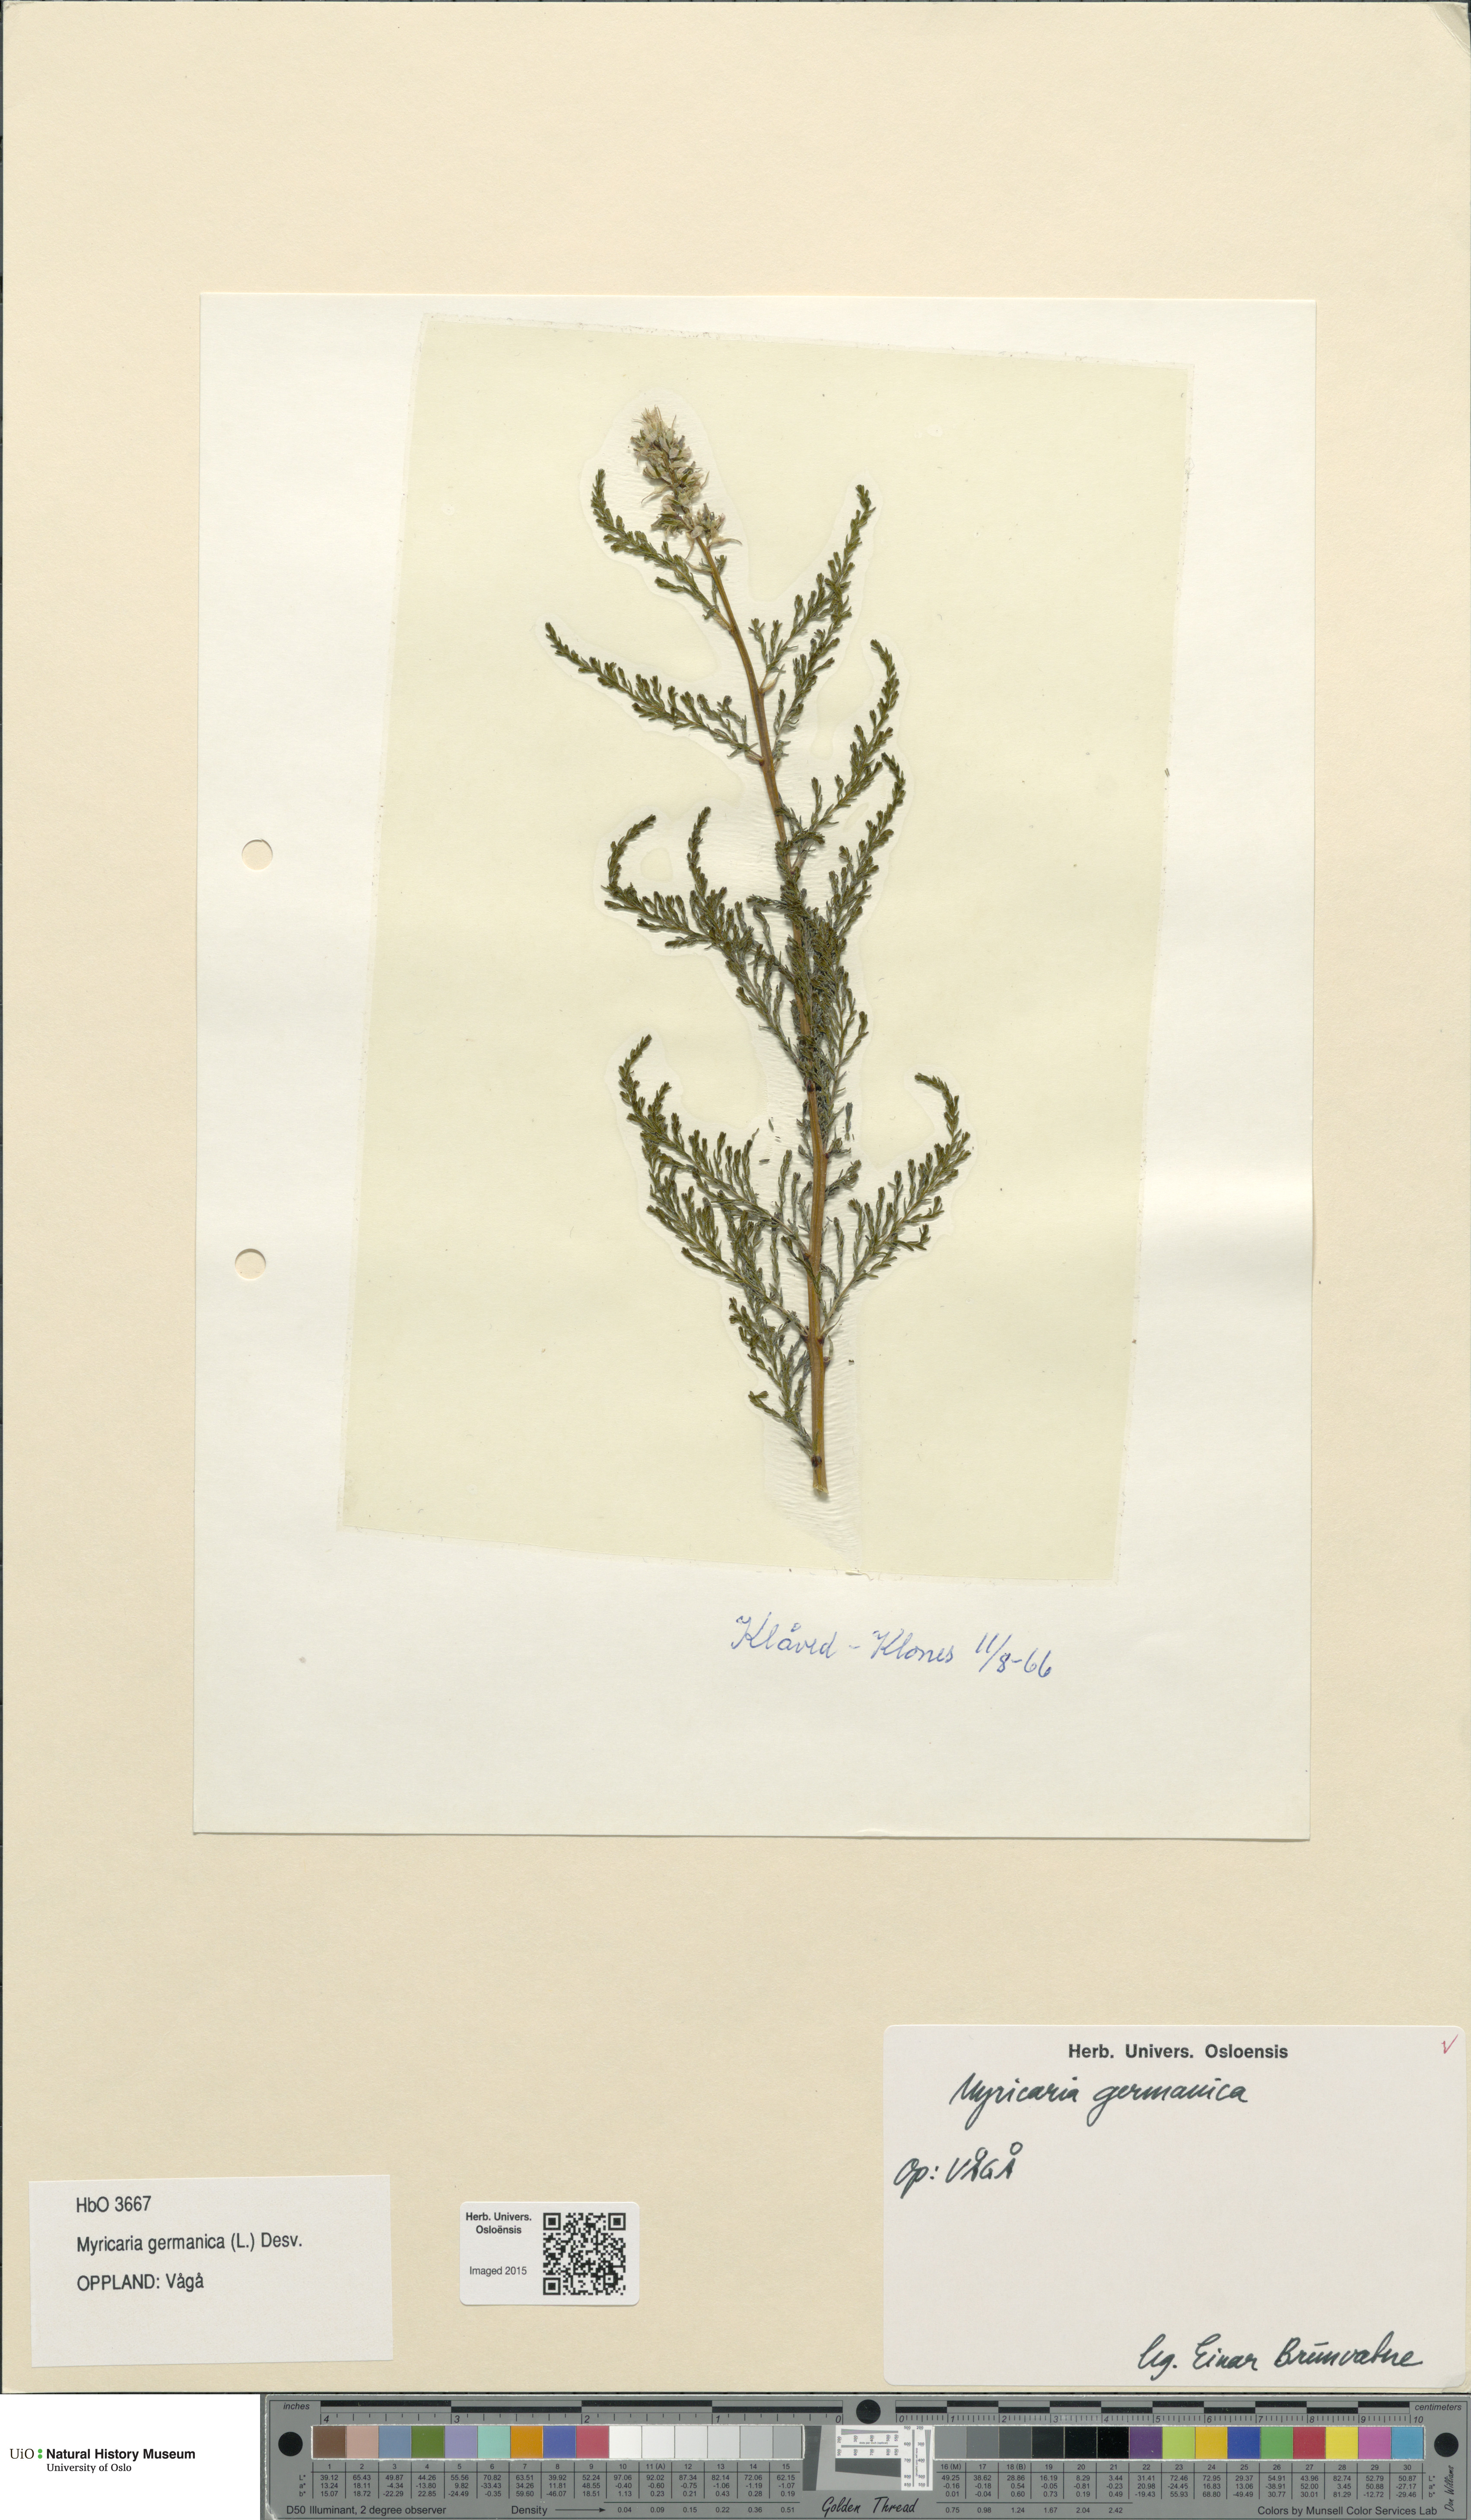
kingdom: Plantae
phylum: Tracheophyta
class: Magnoliopsida
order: Caryophyllales
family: Tamaricaceae
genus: Myricaria
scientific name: Myricaria germanica
